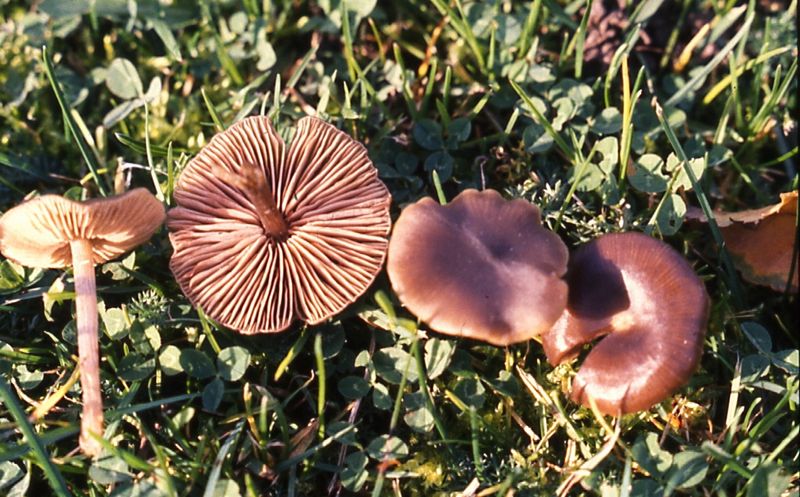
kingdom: Fungi
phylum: Basidiomycota
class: Agaricomycetes
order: Agaricales
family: Entolomataceae
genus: Entoloma
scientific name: Entoloma sericeum
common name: silkeglinsende rødblad
